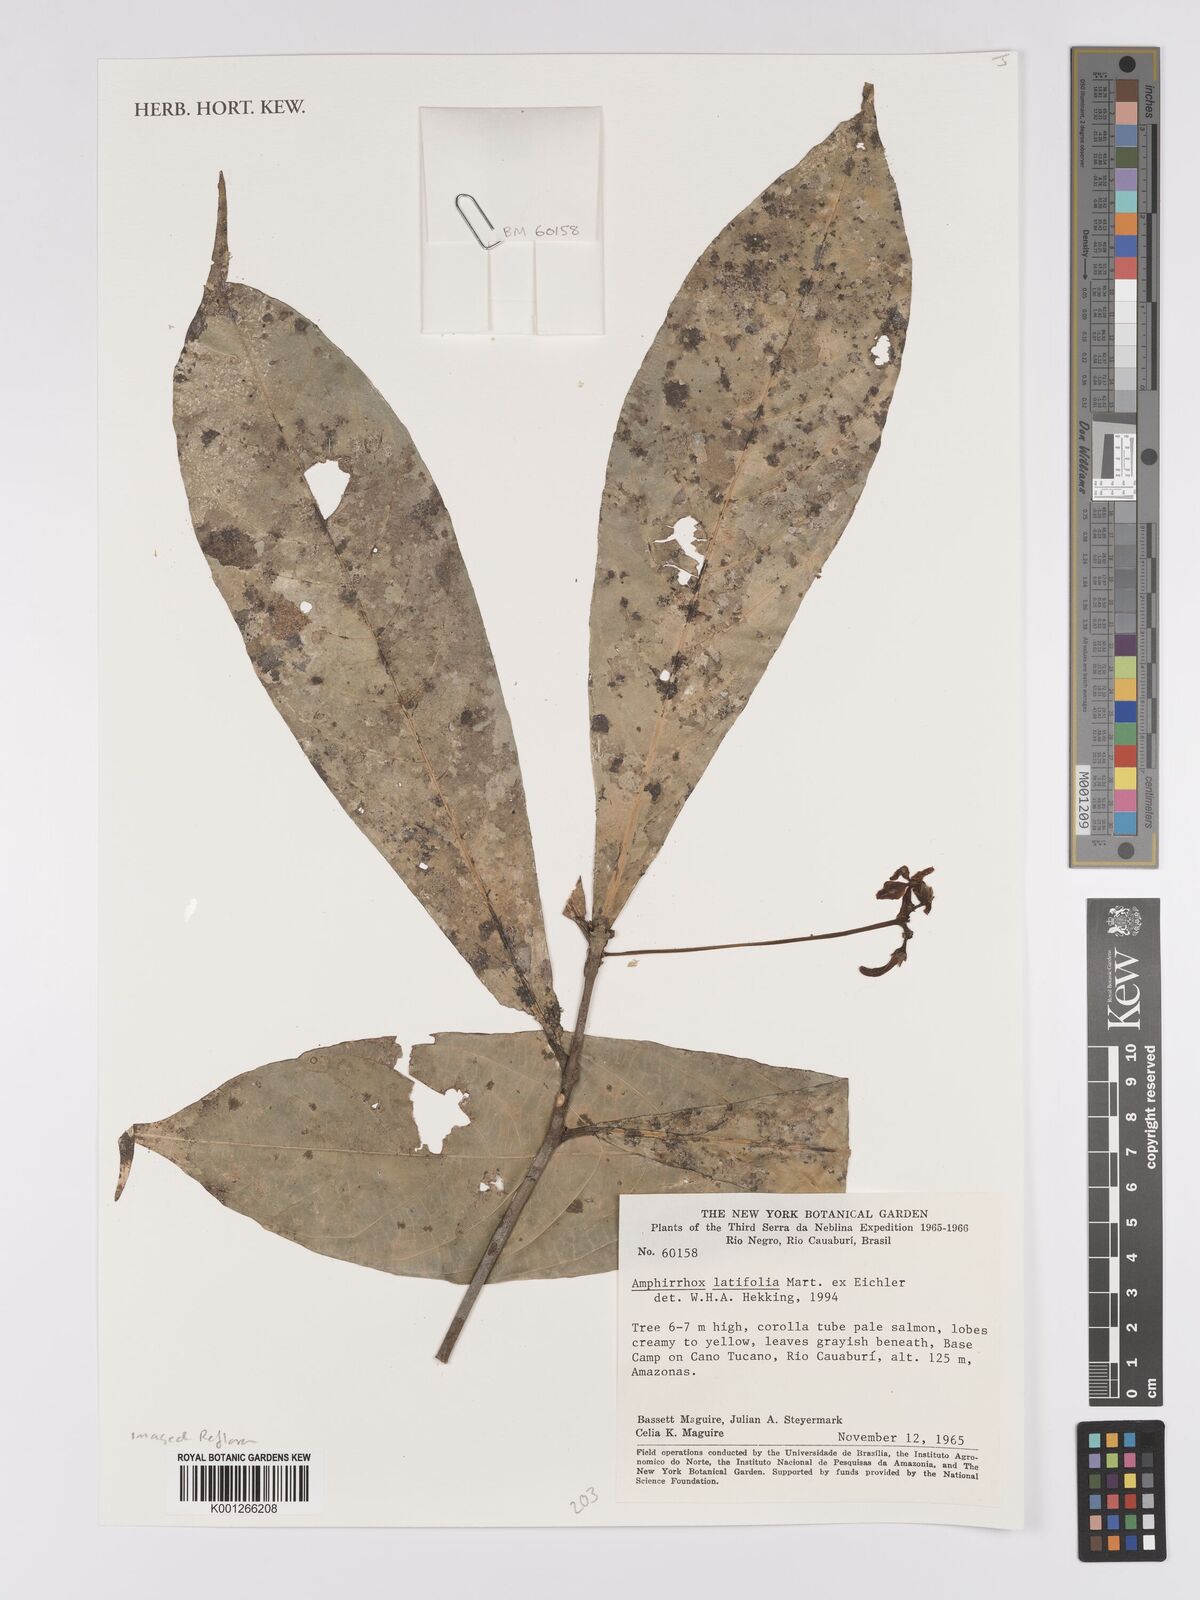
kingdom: Plantae
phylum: Tracheophyta
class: Magnoliopsida
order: Malpighiales
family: Violaceae
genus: Amphirrhox
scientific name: Amphirrhox longifolia
